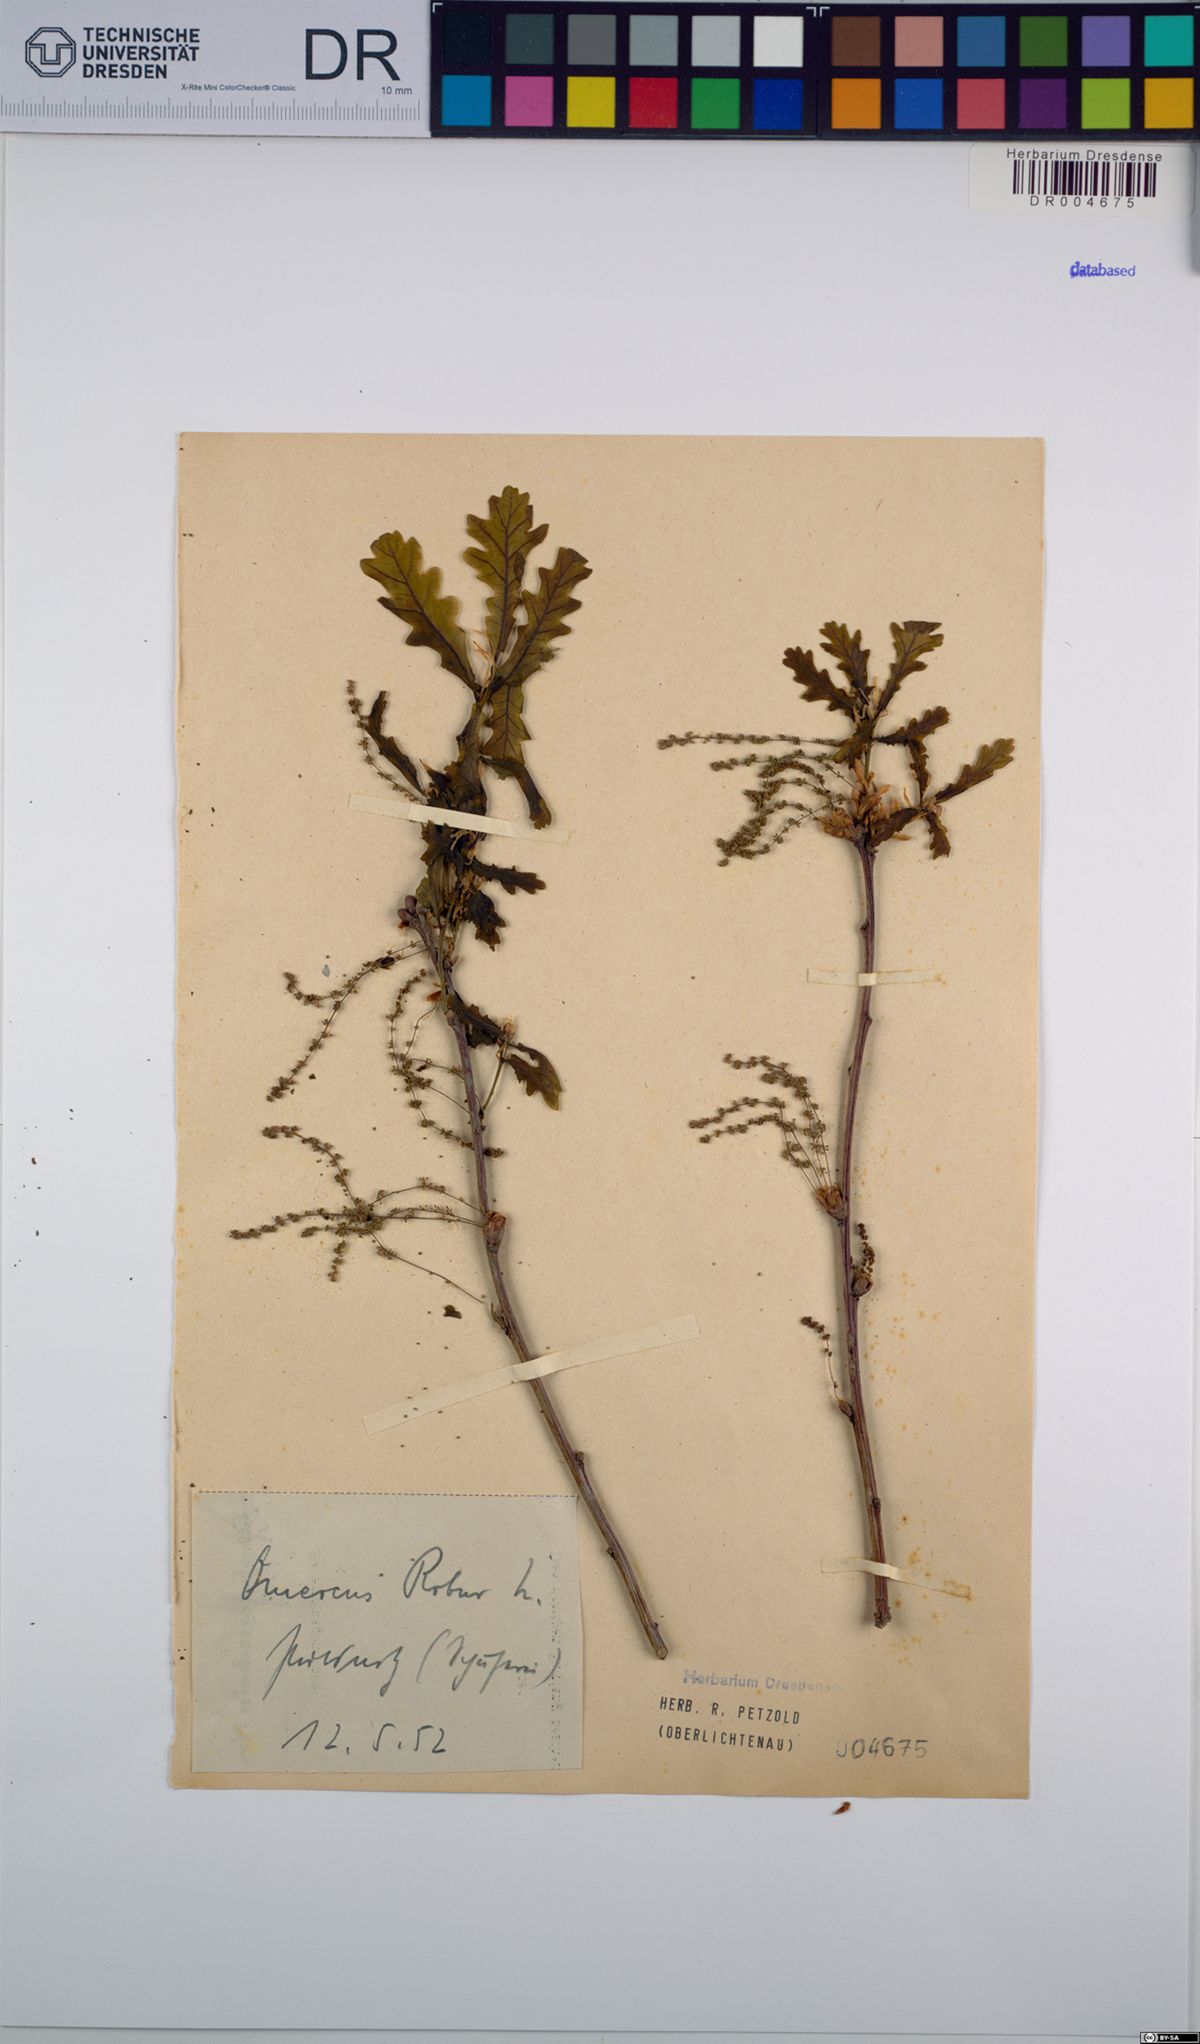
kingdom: Plantae
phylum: Tracheophyta
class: Magnoliopsida
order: Fagales
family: Fagaceae
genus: Quercus
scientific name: Quercus robur
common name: Pedunculate oak
